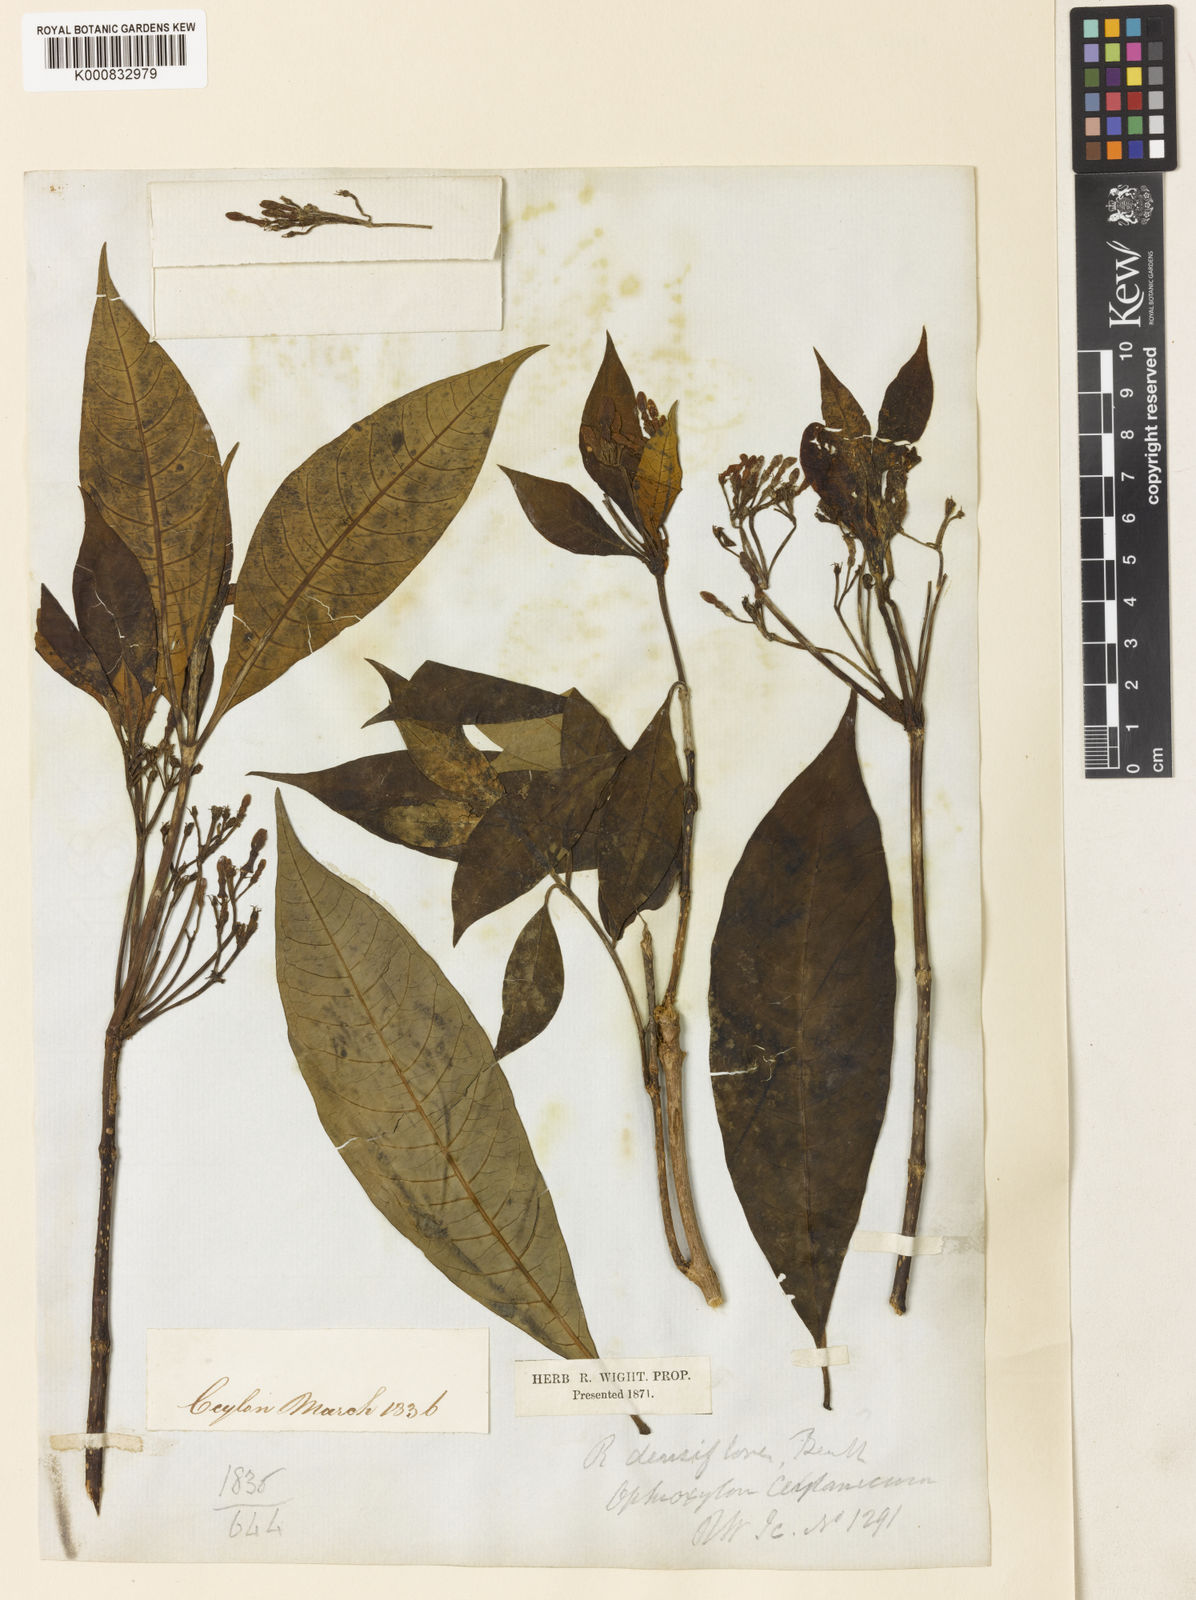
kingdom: Plantae
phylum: Tracheophyta
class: Magnoliopsida
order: Gentianales
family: Apocynaceae
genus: Rauvolfia
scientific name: Rauvolfia verticillata
